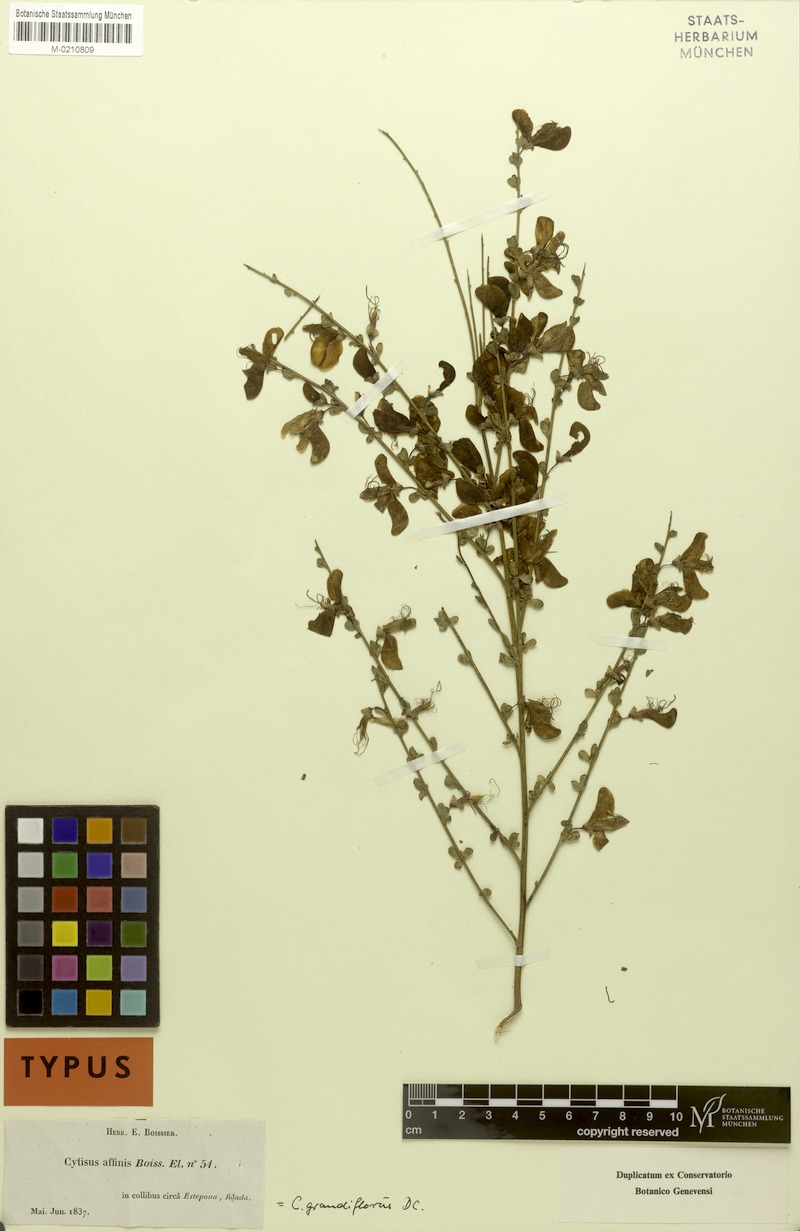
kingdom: Plantae
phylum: Tracheophyta
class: Magnoliopsida
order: Fabales
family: Fabaceae
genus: Cytisus
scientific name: Cytisus grandiflorus
